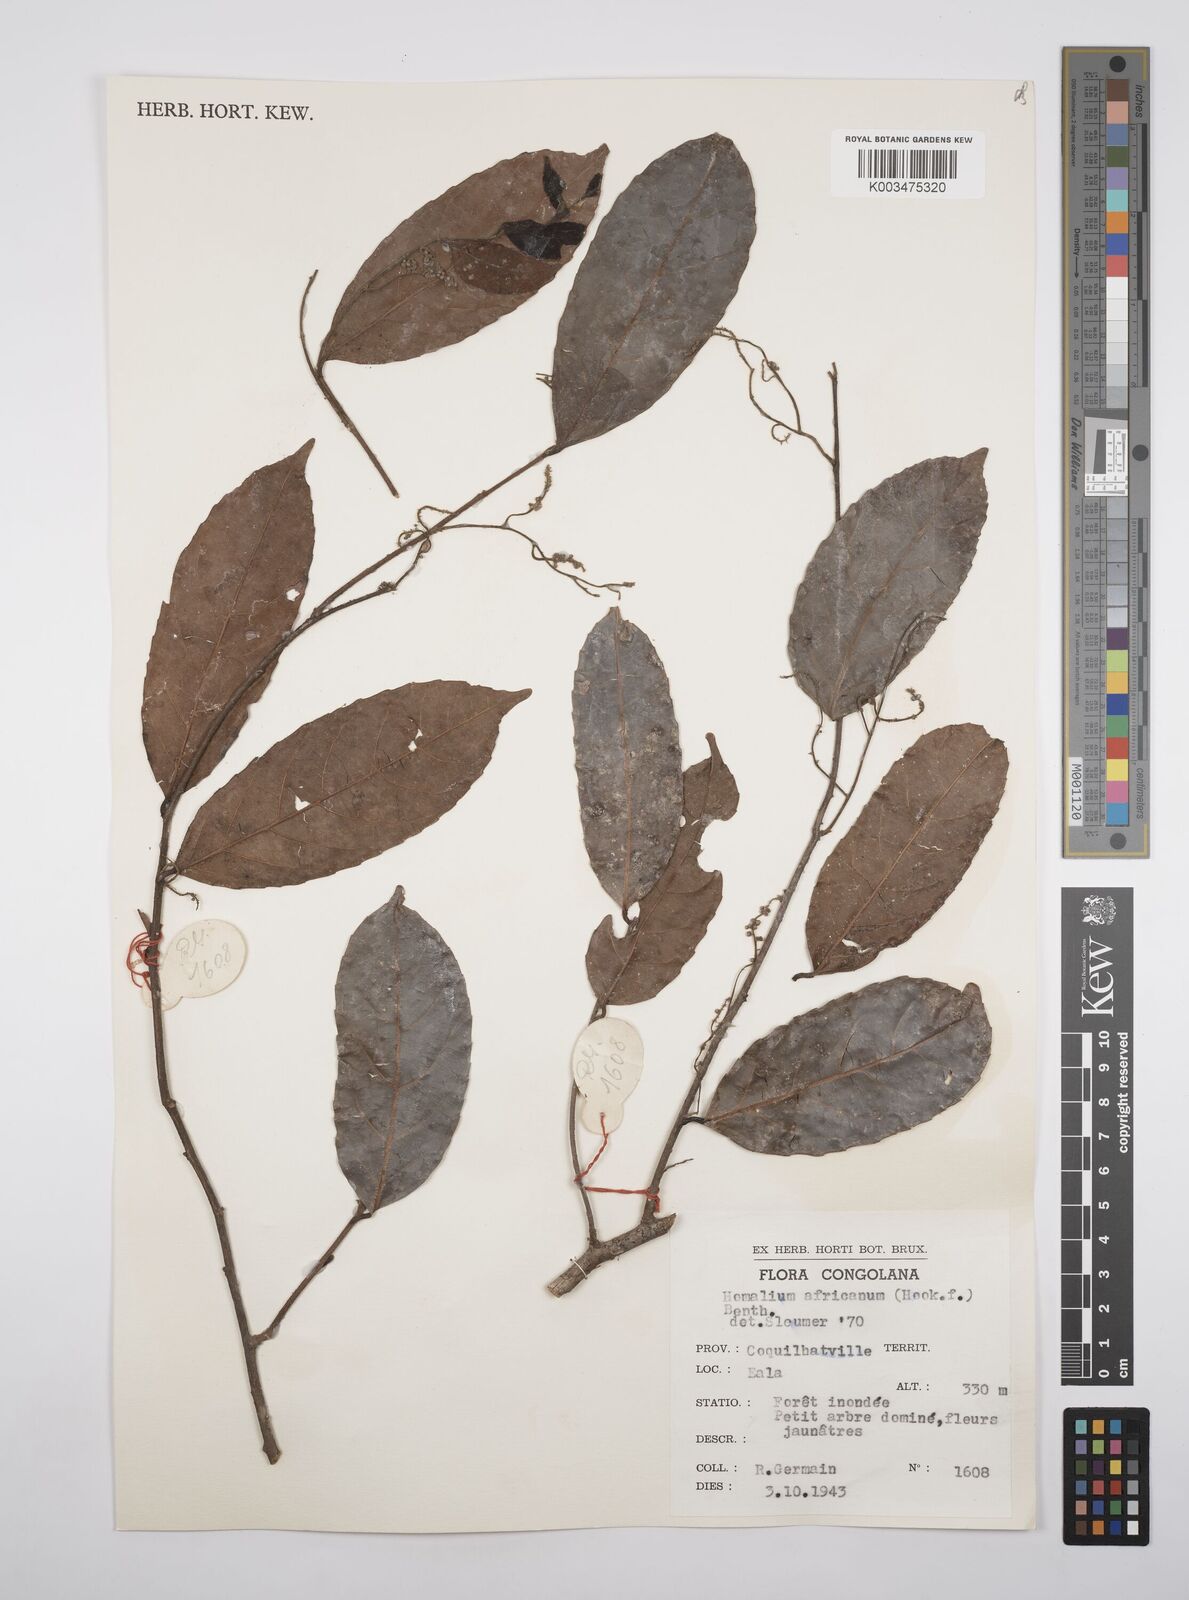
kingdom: Plantae
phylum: Tracheophyta
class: Magnoliopsida
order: Malpighiales
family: Salicaceae
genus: Homalium
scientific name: Homalium africanum
